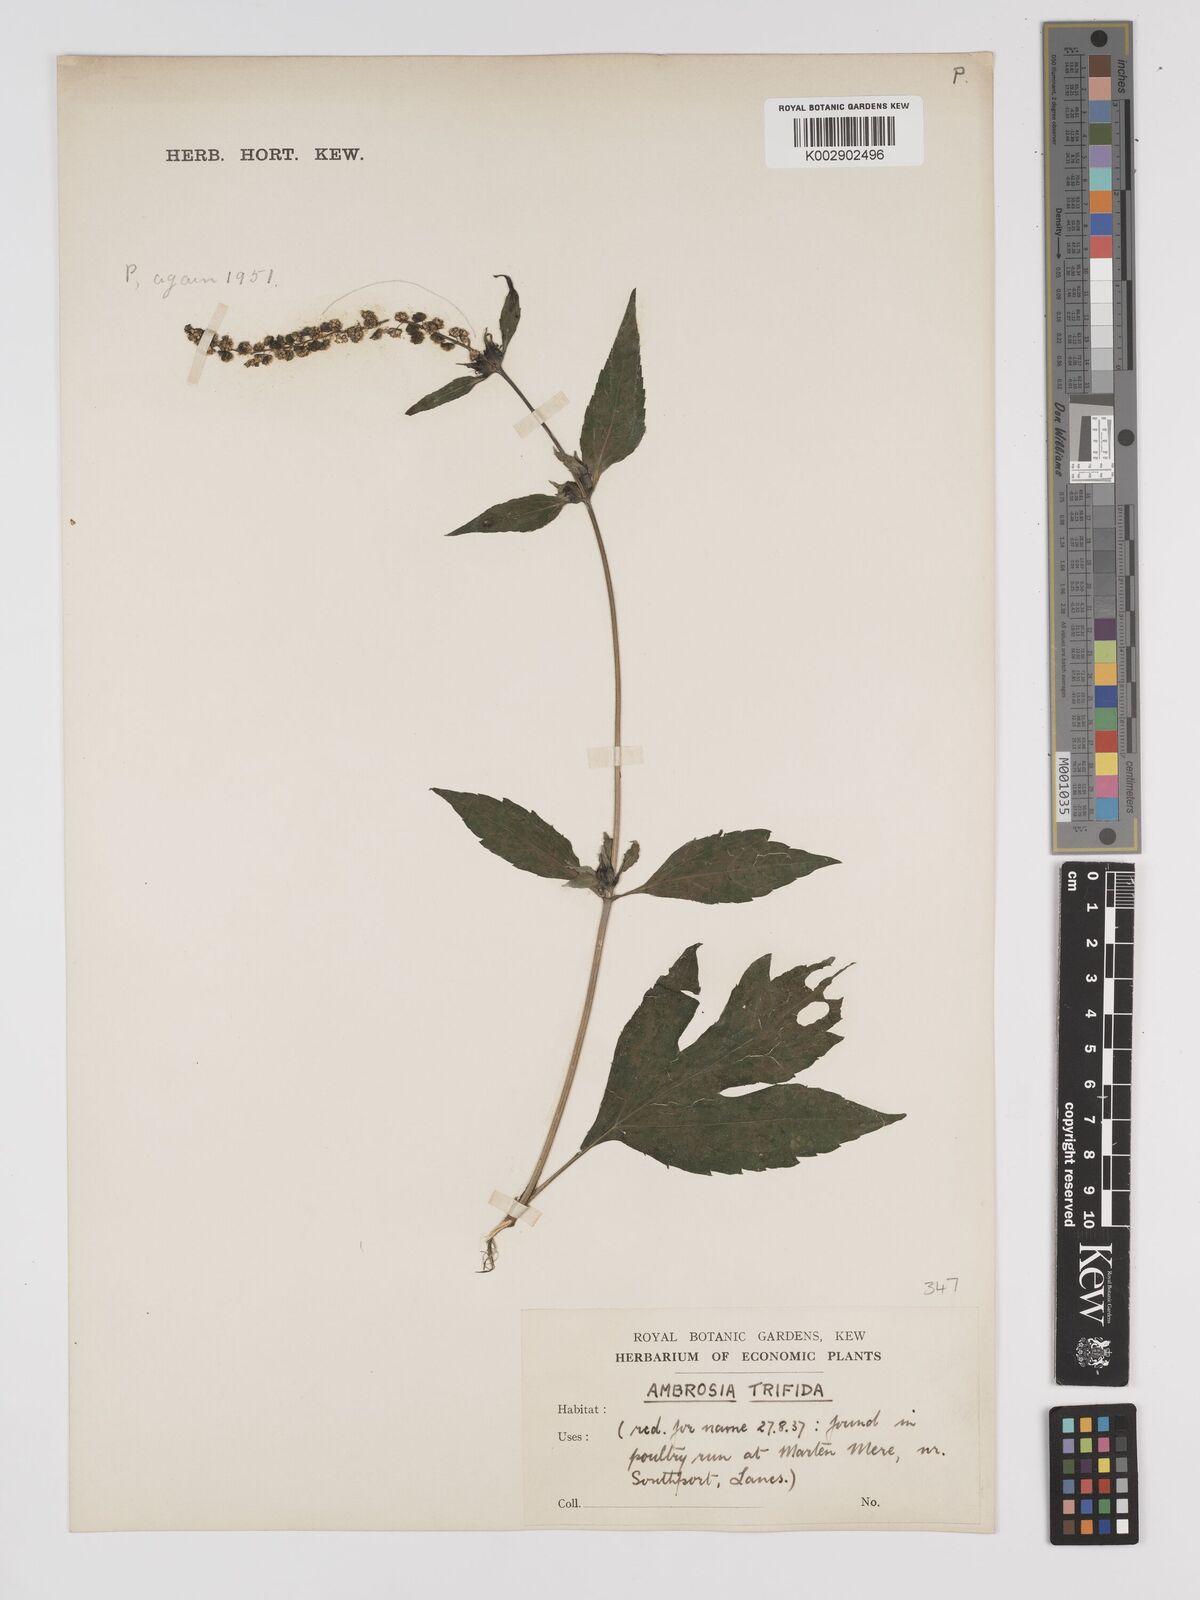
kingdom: Plantae
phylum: Tracheophyta
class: Magnoliopsida
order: Asterales
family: Asteraceae
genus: Ambrosia
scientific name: Ambrosia trifida
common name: Giant ragweed
